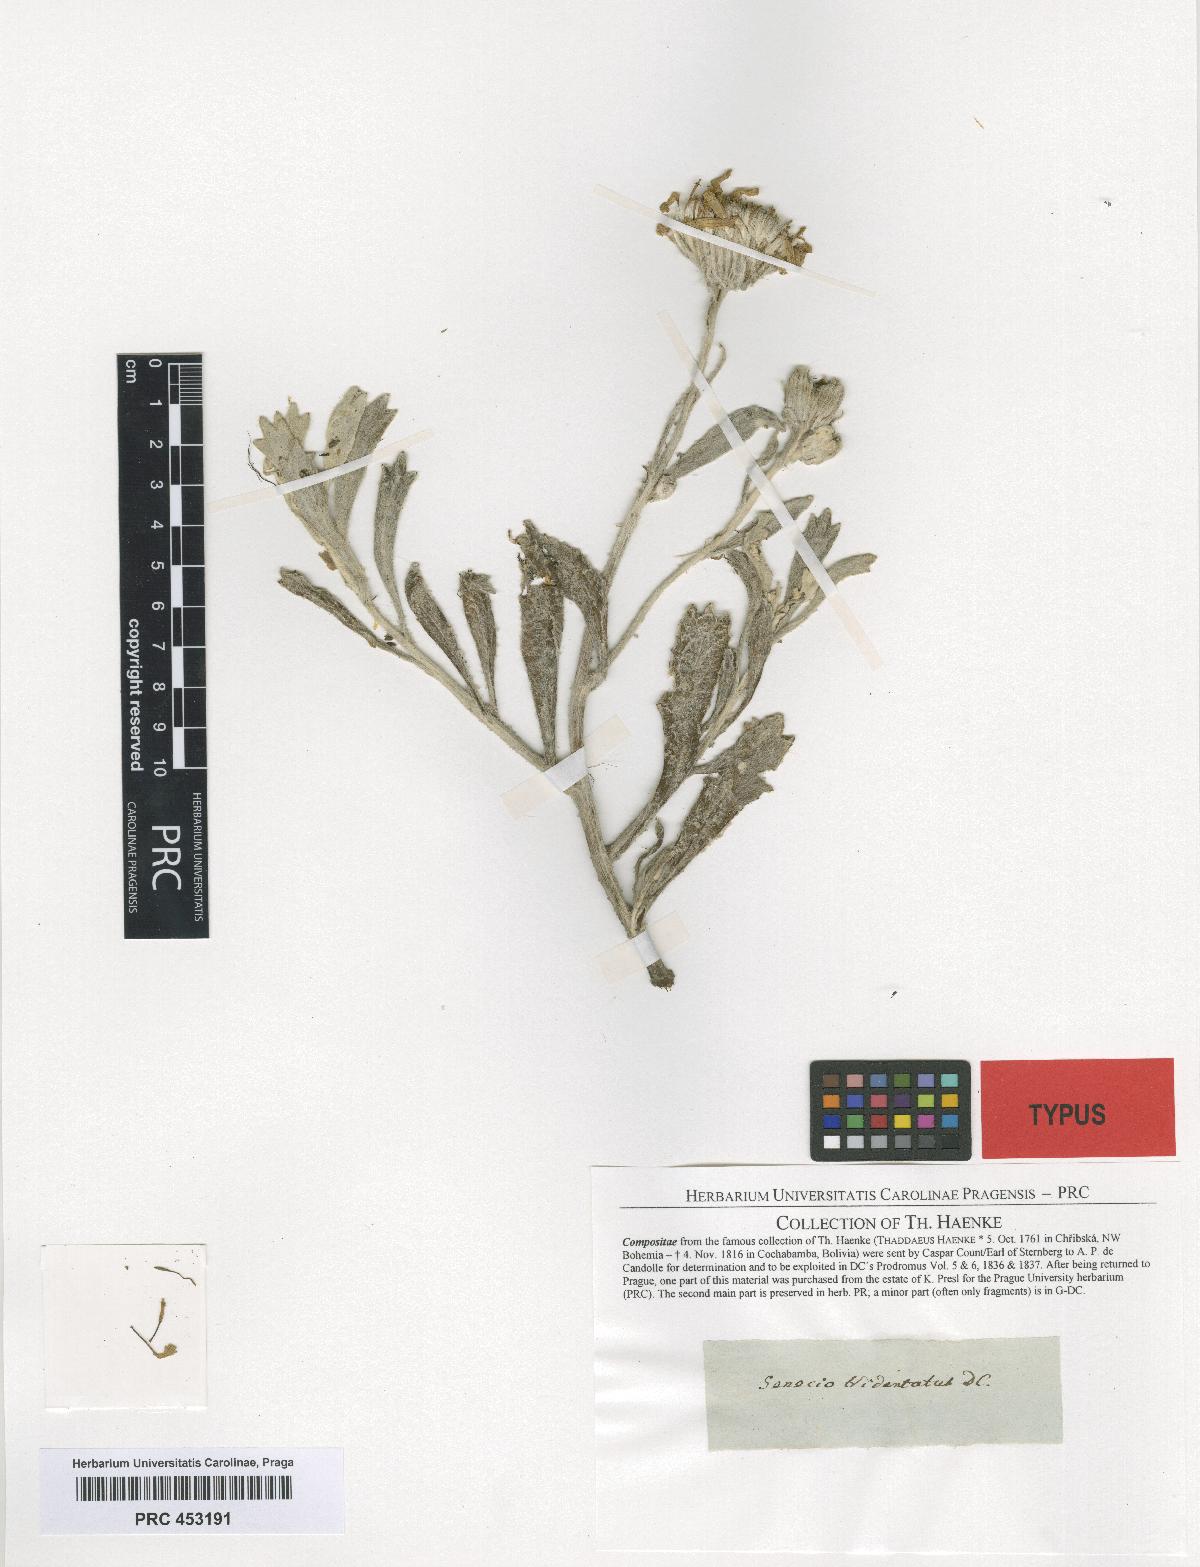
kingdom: Plantae
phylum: Tracheophyta
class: Magnoliopsida
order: Asterales
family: Asteraceae
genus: Senecio
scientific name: Senecio tridentatus
